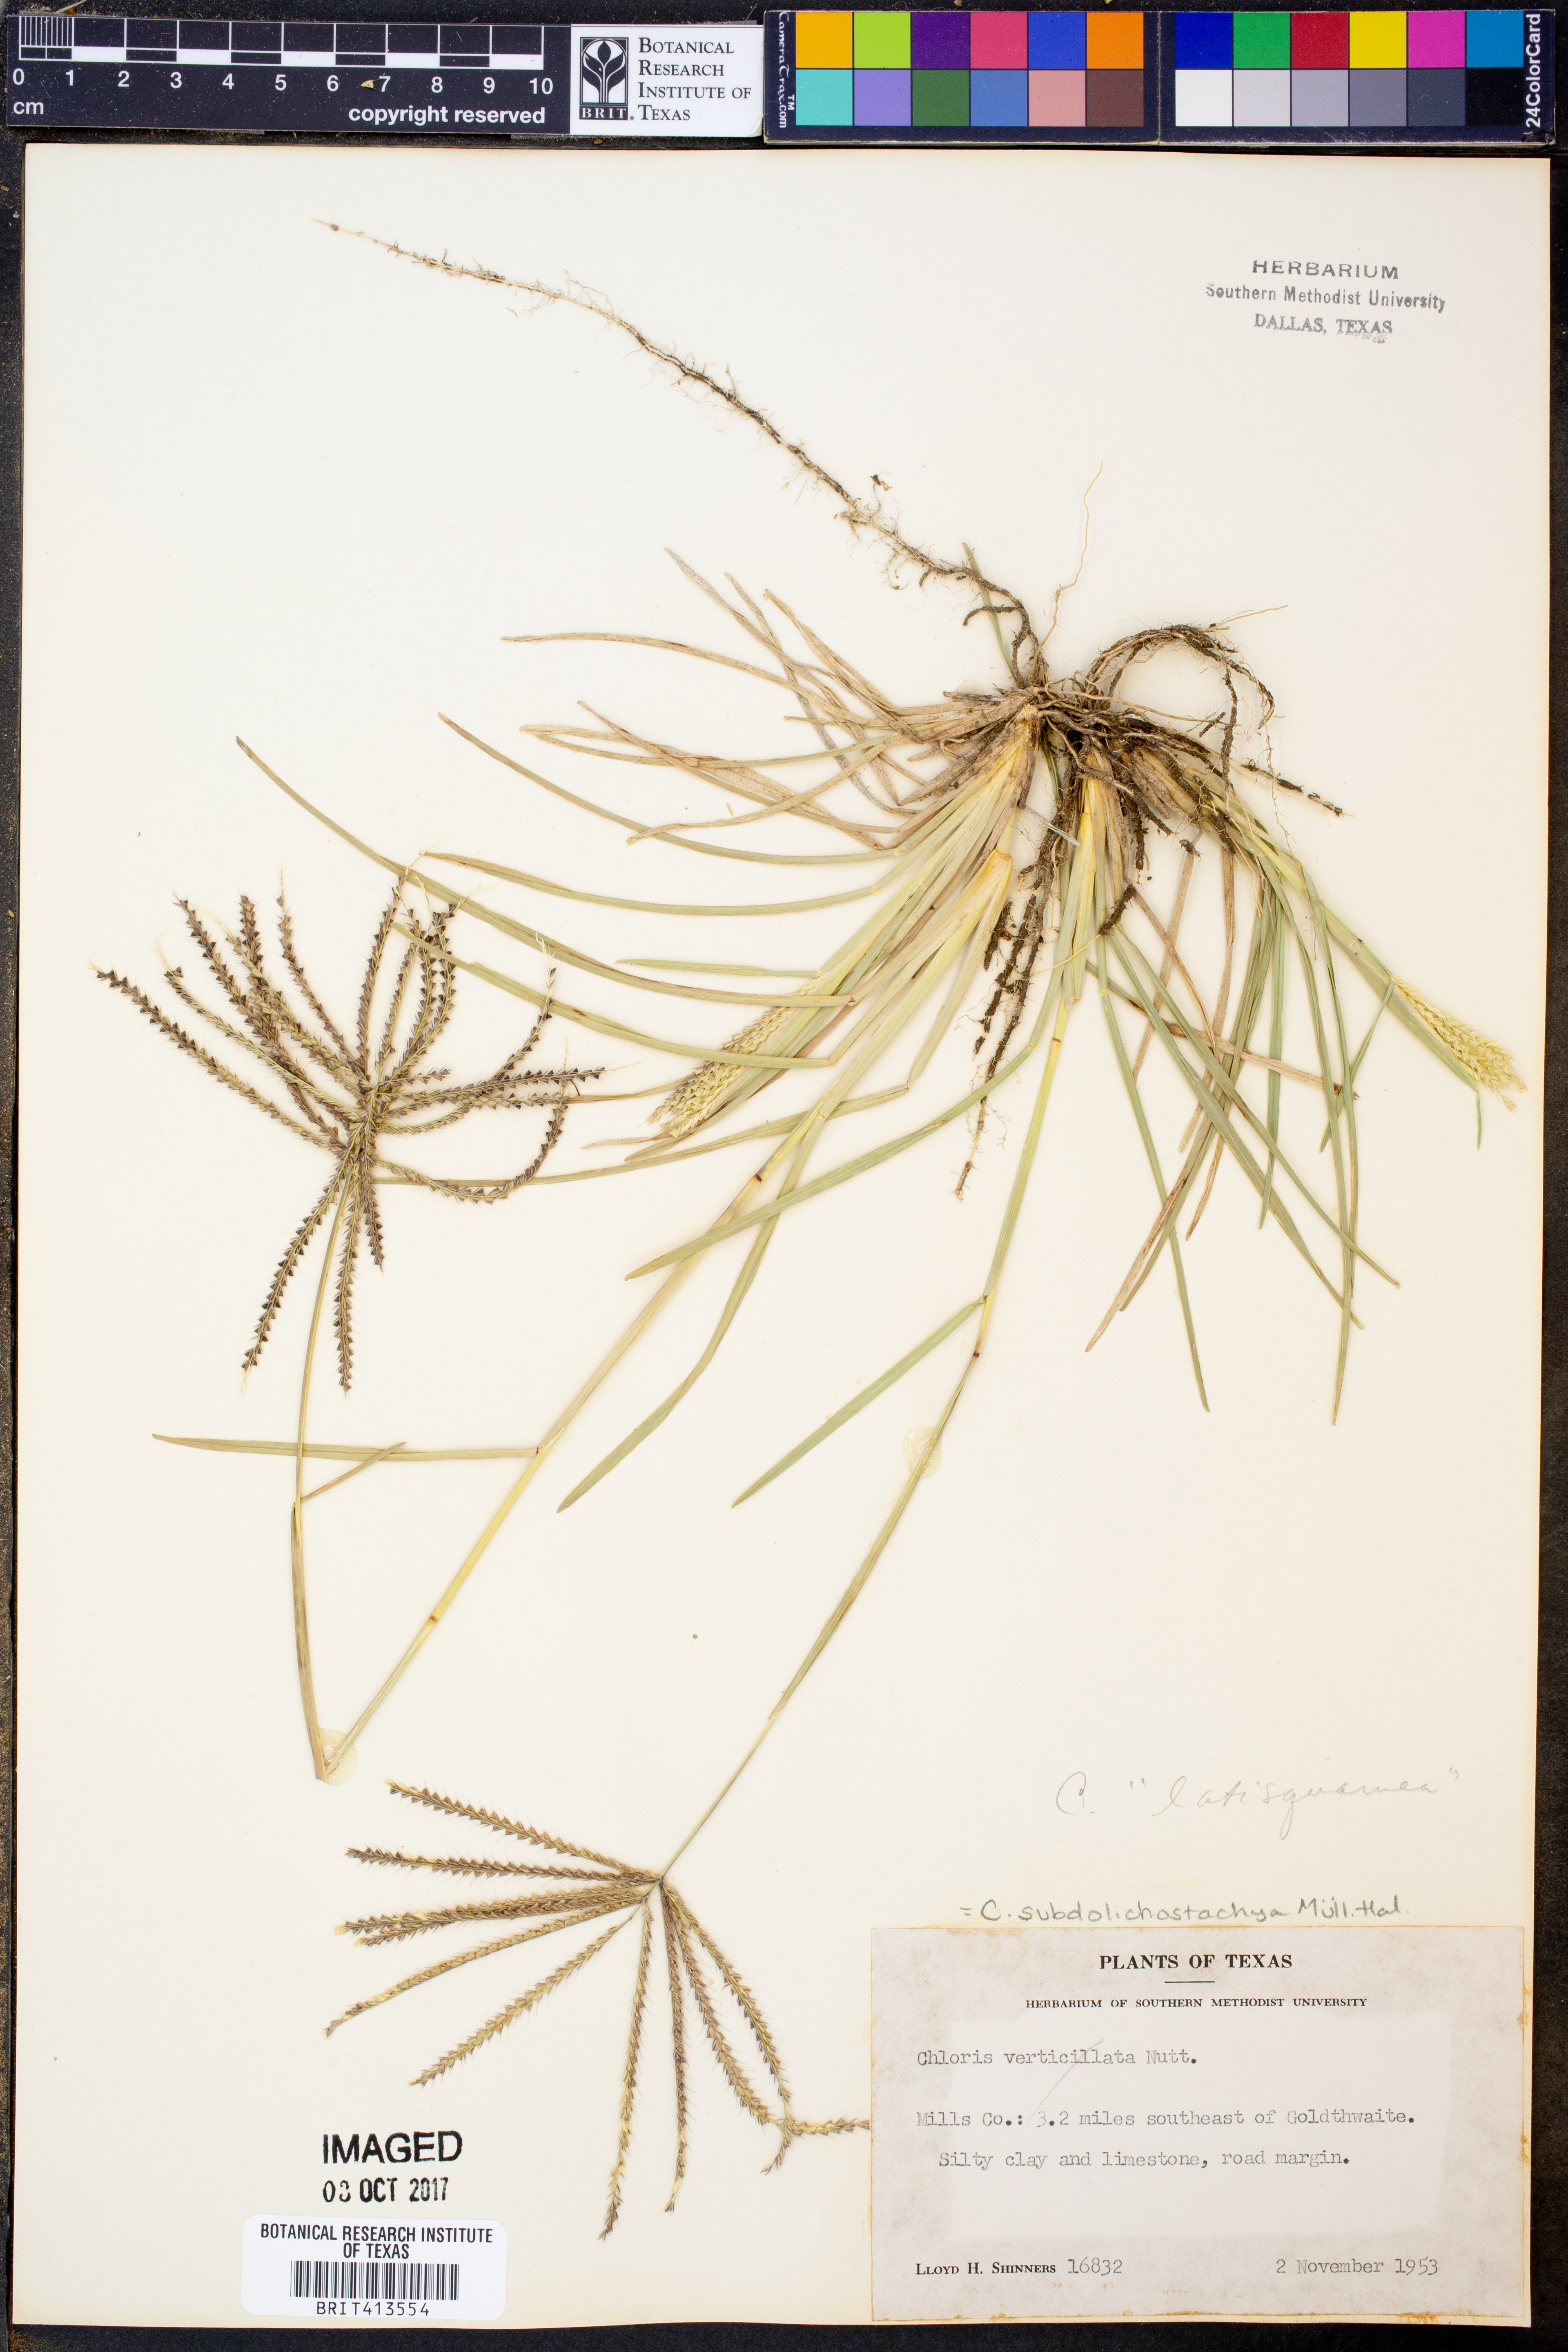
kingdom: Plantae
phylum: Tracheophyta
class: Liliopsida
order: Poales
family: Poaceae
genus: Chloris
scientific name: Chloris verticillata
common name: Tumble windmill grass
